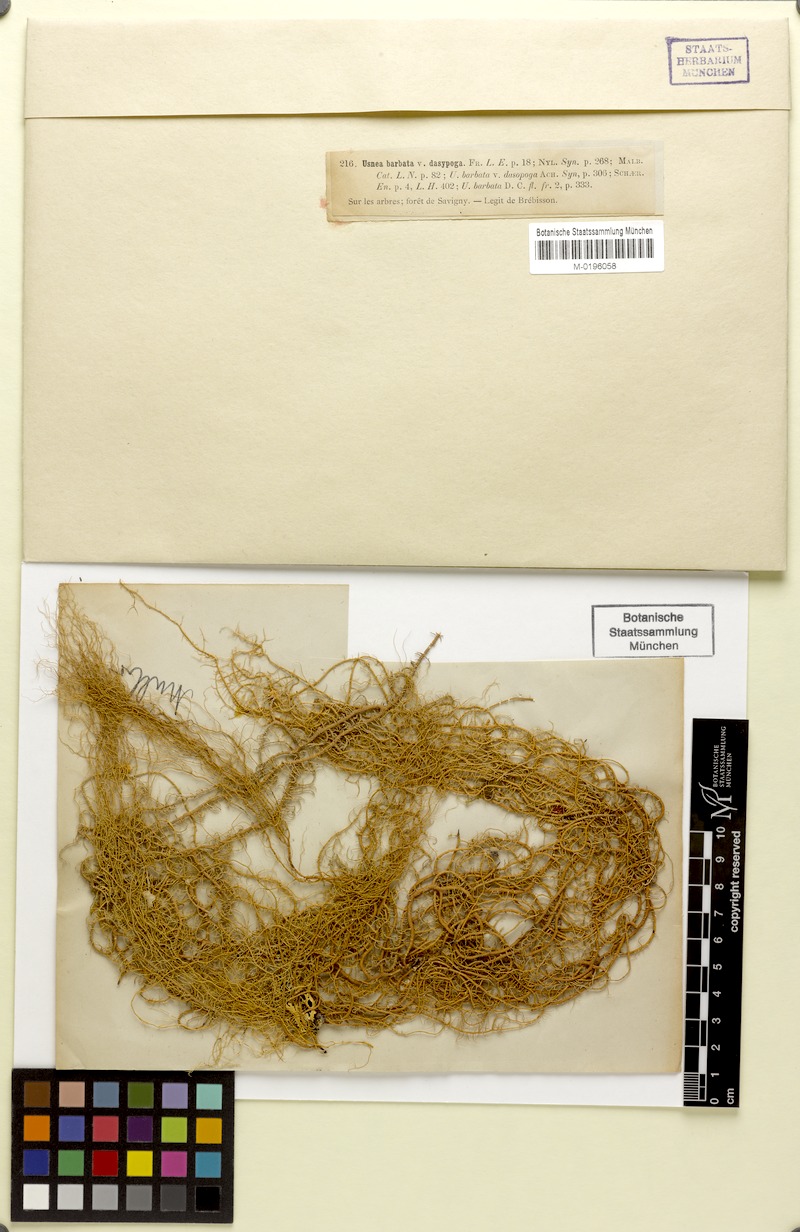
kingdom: Fungi
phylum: Ascomycota
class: Lecanoromycetes
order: Lecanorales
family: Parmeliaceae
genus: Usnea
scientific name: Usnea dasopoga
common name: Fishbone beard lichen
